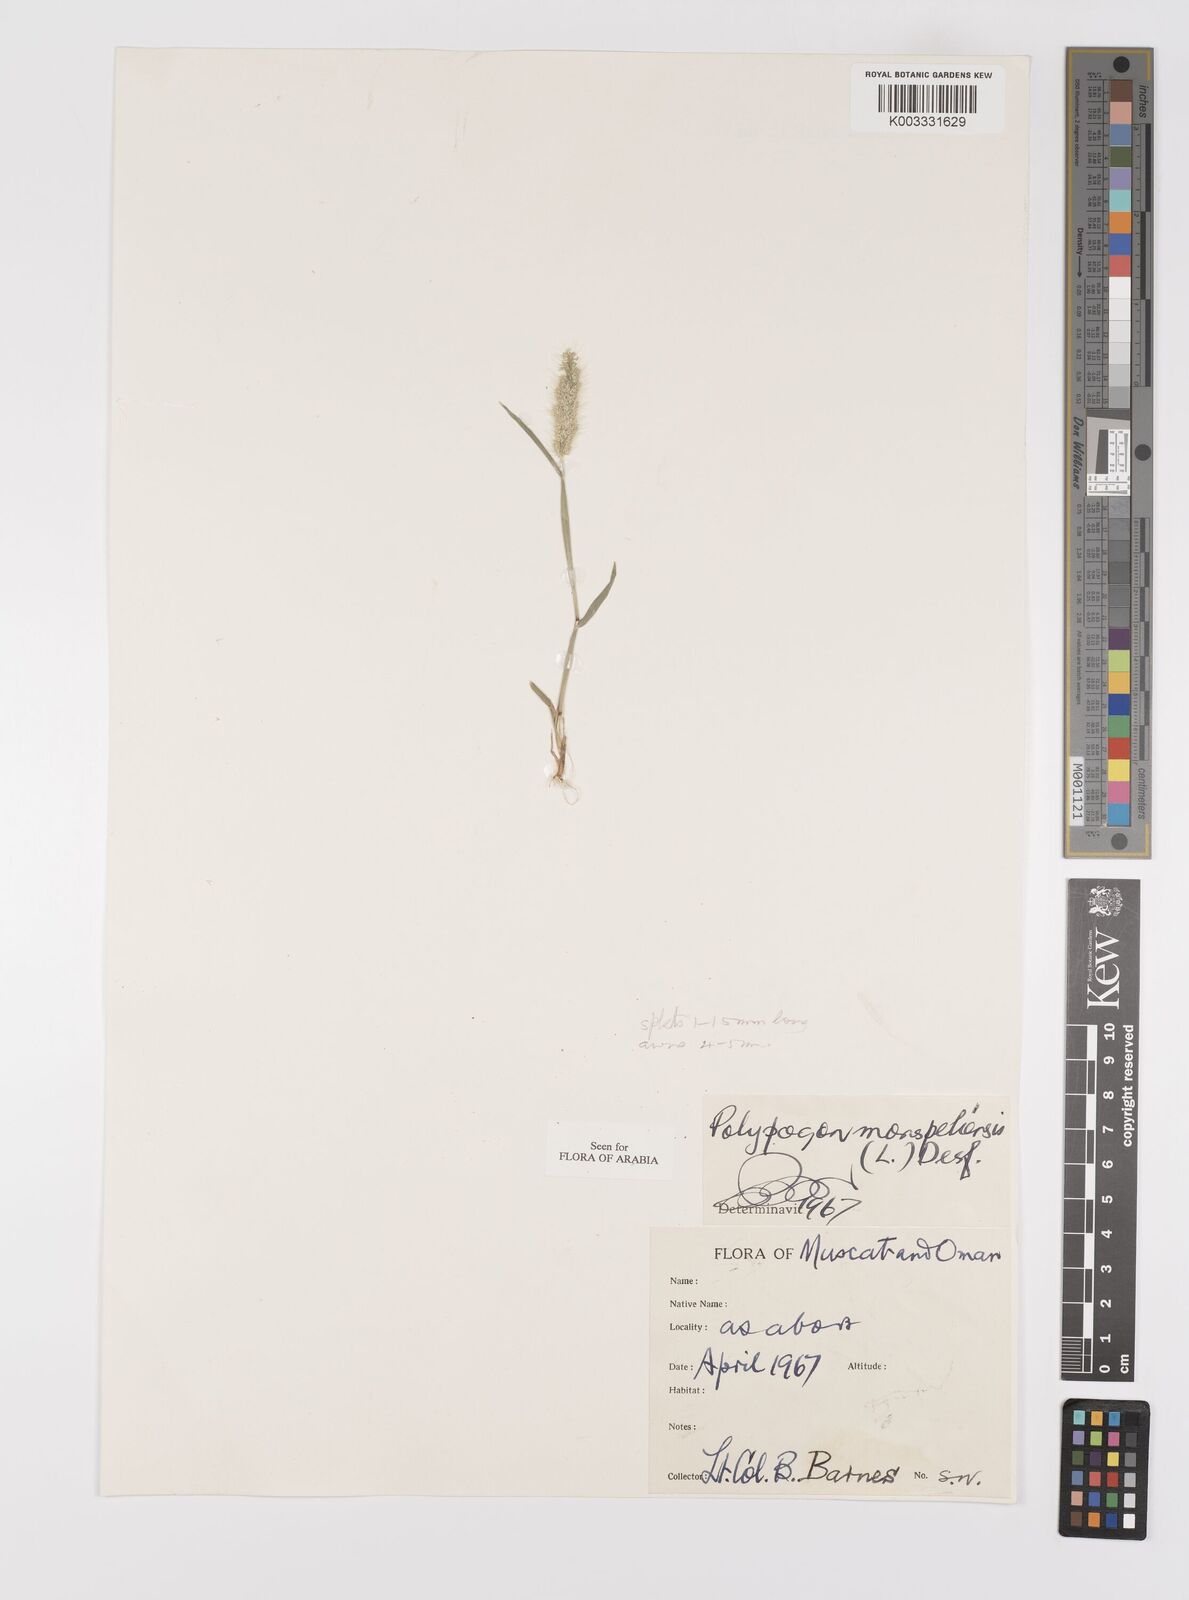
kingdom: Plantae
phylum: Tracheophyta
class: Liliopsida
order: Poales
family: Poaceae
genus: Polypogon
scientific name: Polypogon monspeliensis
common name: Annual rabbitsfoot grass
